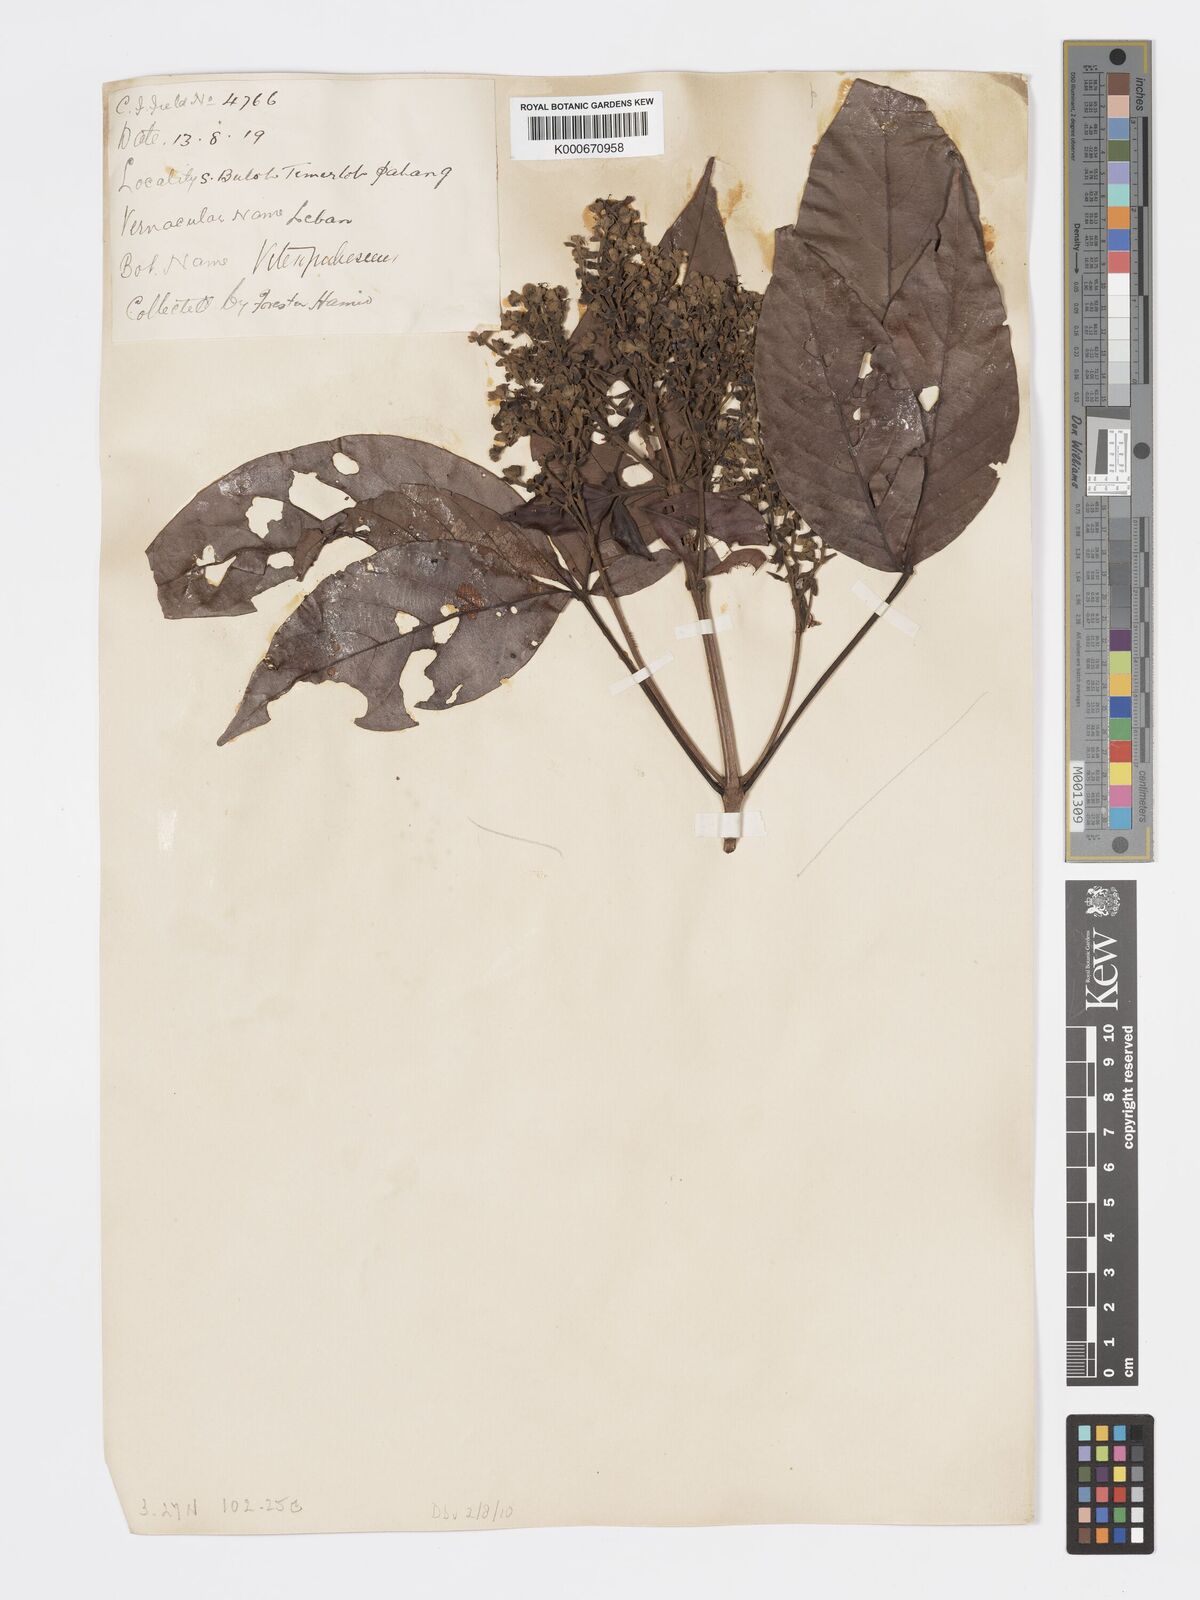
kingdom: Plantae
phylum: Tracheophyta
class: Magnoliopsida
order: Lamiales
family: Lamiaceae
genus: Vitex
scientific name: Vitex pinnata
